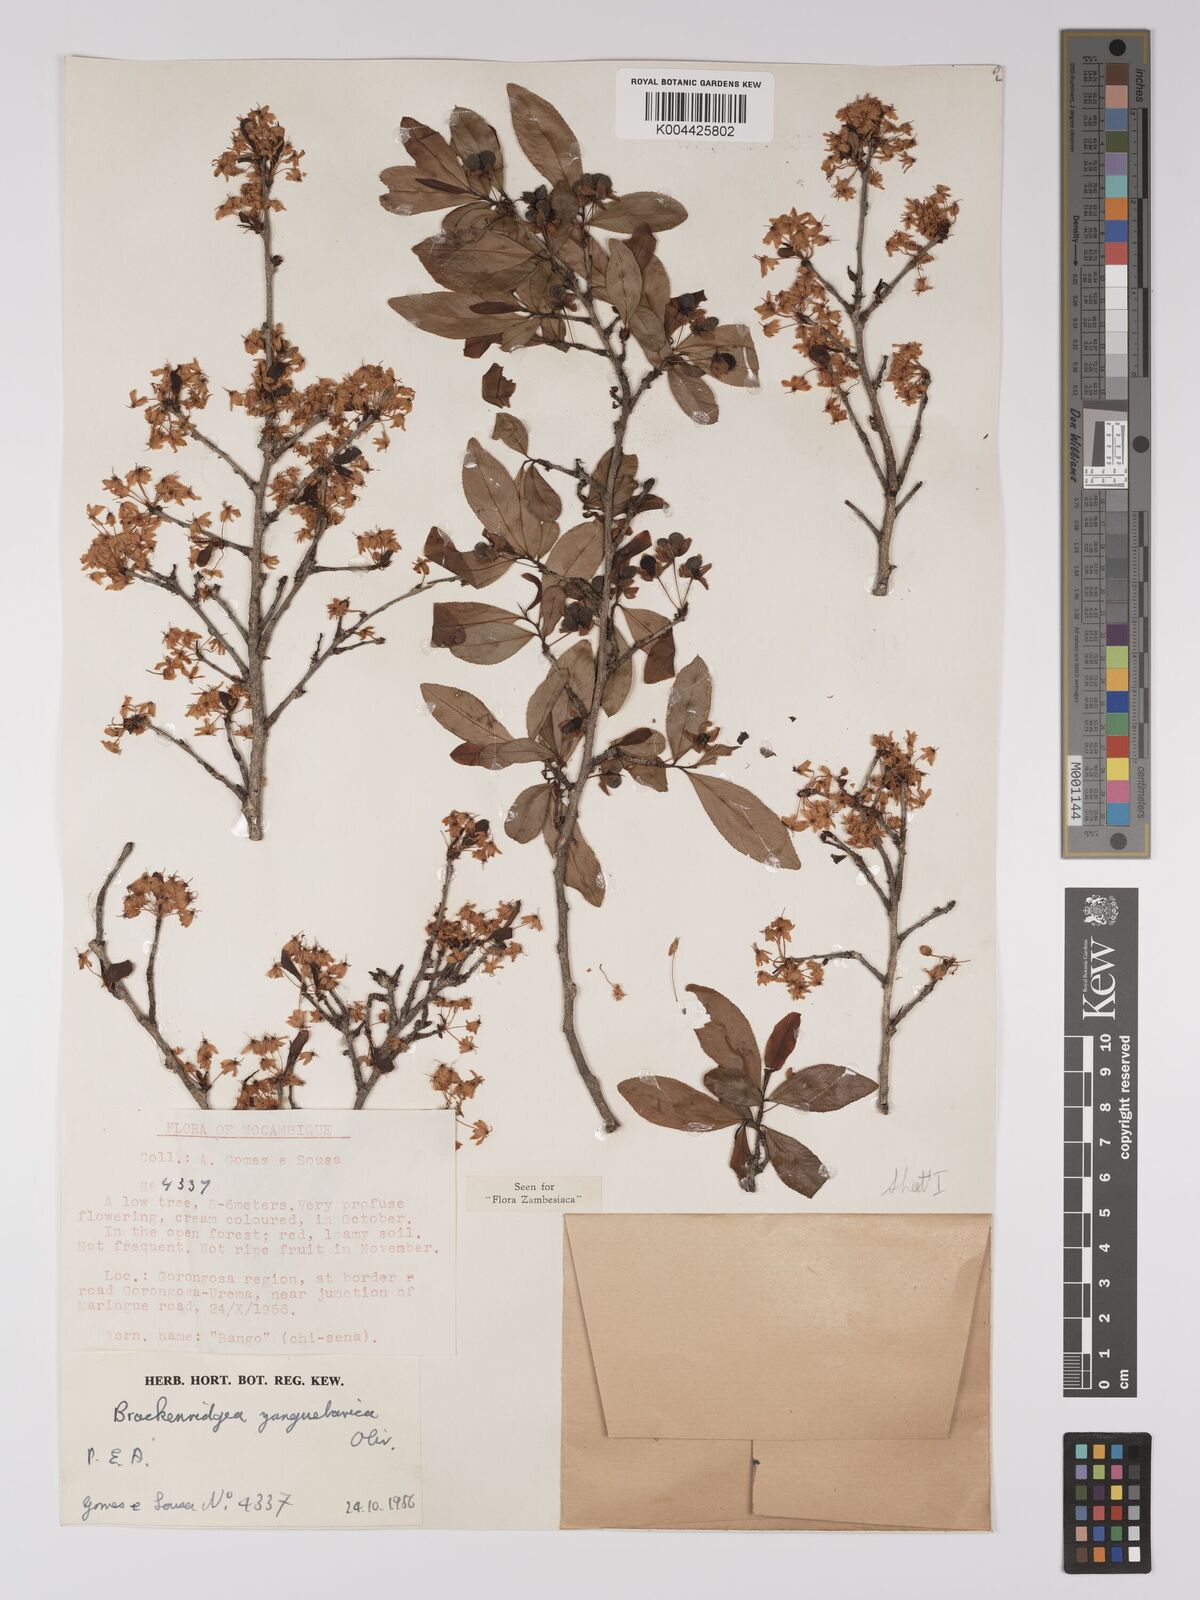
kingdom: Plantae
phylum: Tracheophyta
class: Magnoliopsida
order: Malpighiales
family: Ochnaceae
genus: Brackenridgea
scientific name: Brackenridgea zanguebarica
